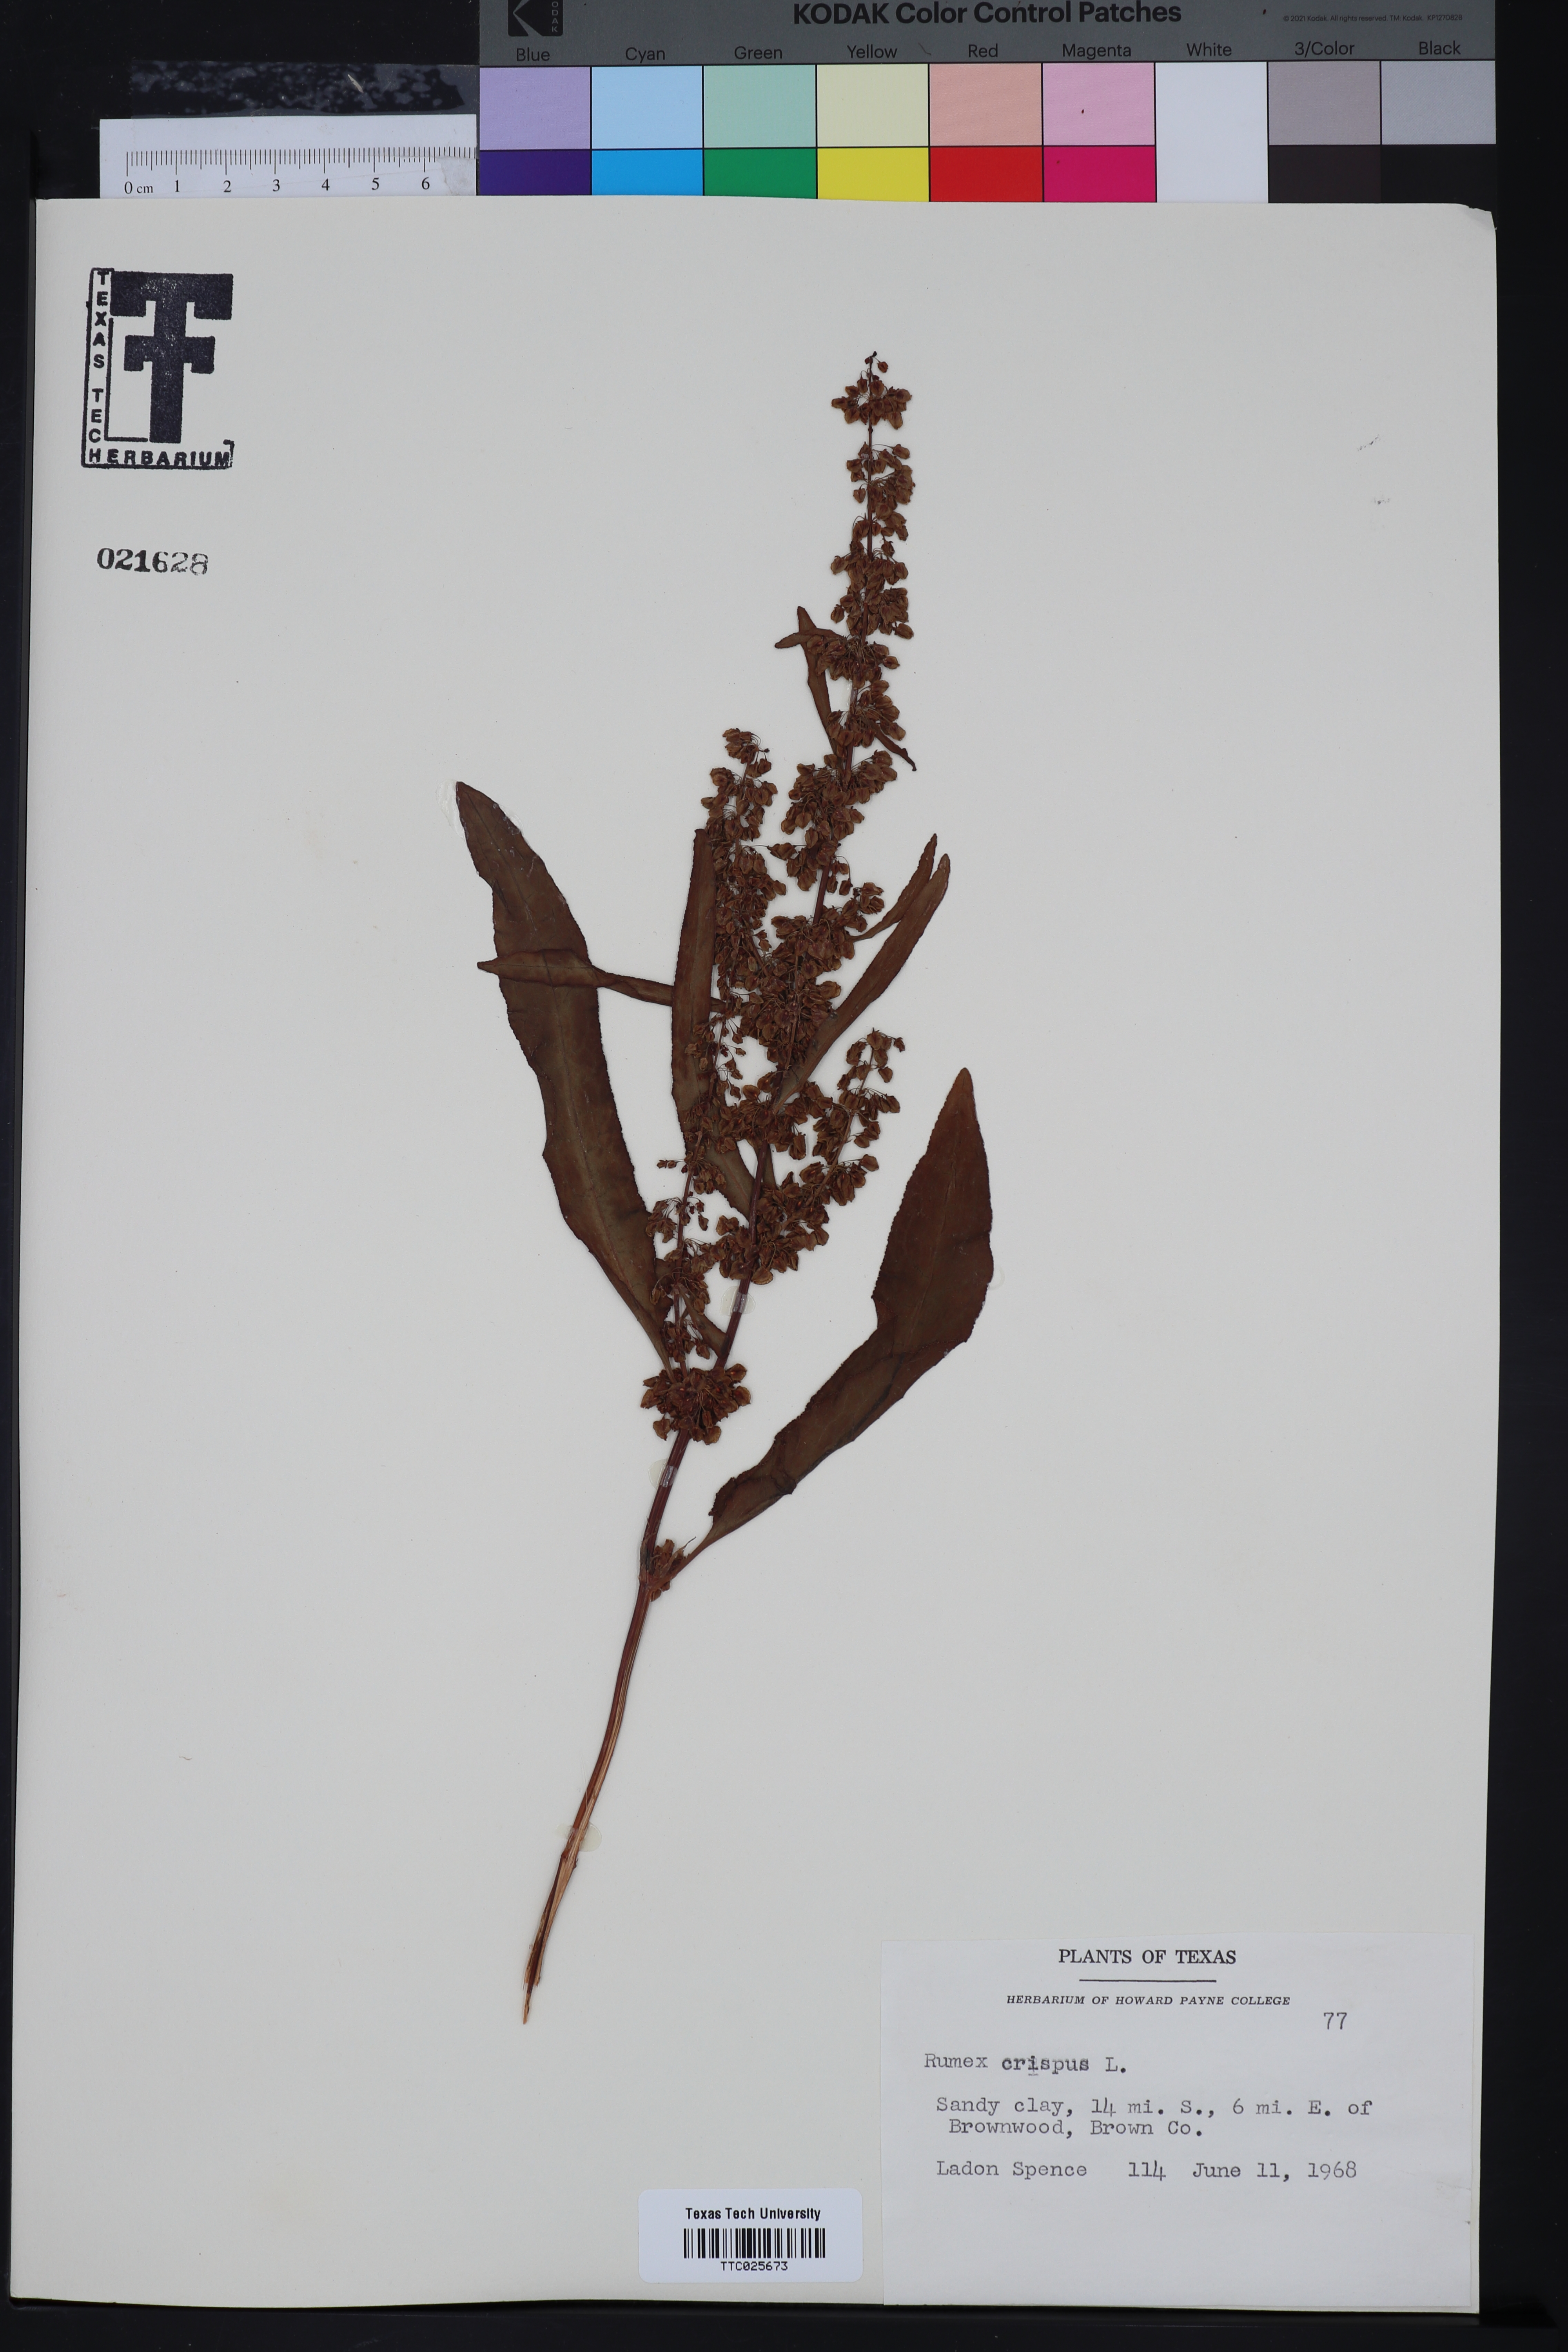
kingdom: Plantae
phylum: Tracheophyta
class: Magnoliopsida
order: Caryophyllales
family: Polygonaceae
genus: Rumex
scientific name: Rumex crispus
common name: Curled dock
